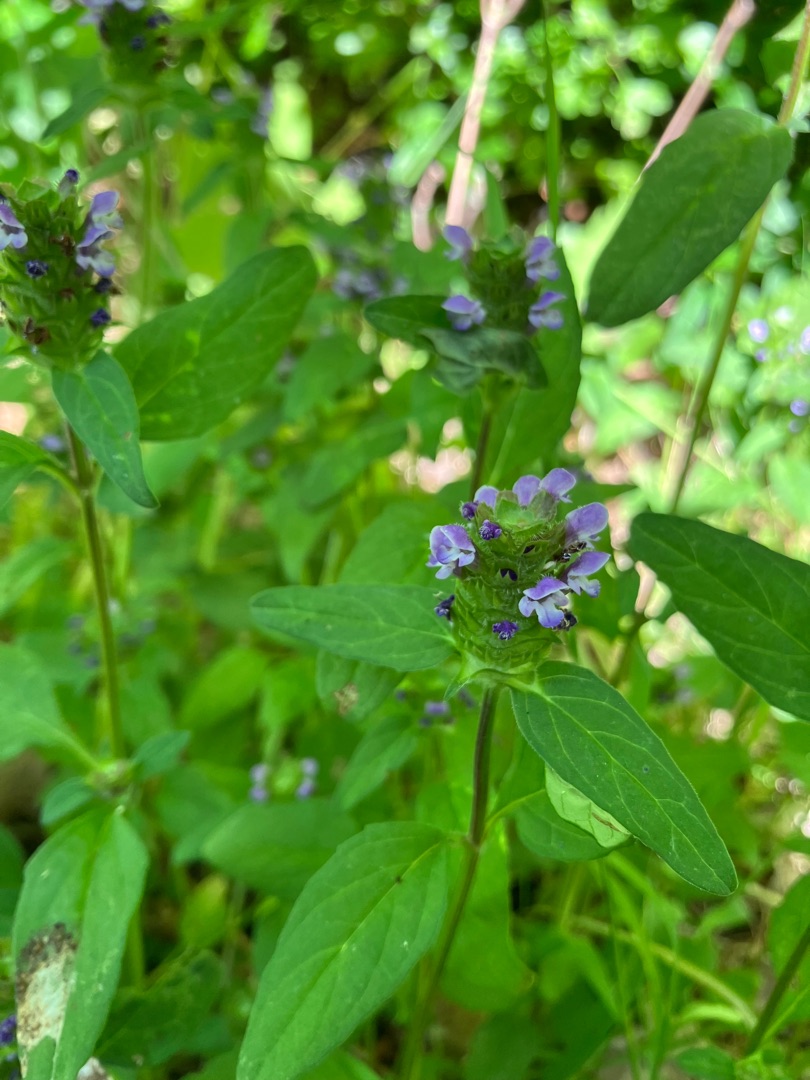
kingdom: Plantae
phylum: Tracheophyta
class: Magnoliopsida
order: Lamiales
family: Lamiaceae
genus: Prunella
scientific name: Prunella vulgaris
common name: Almindelig brunelle
